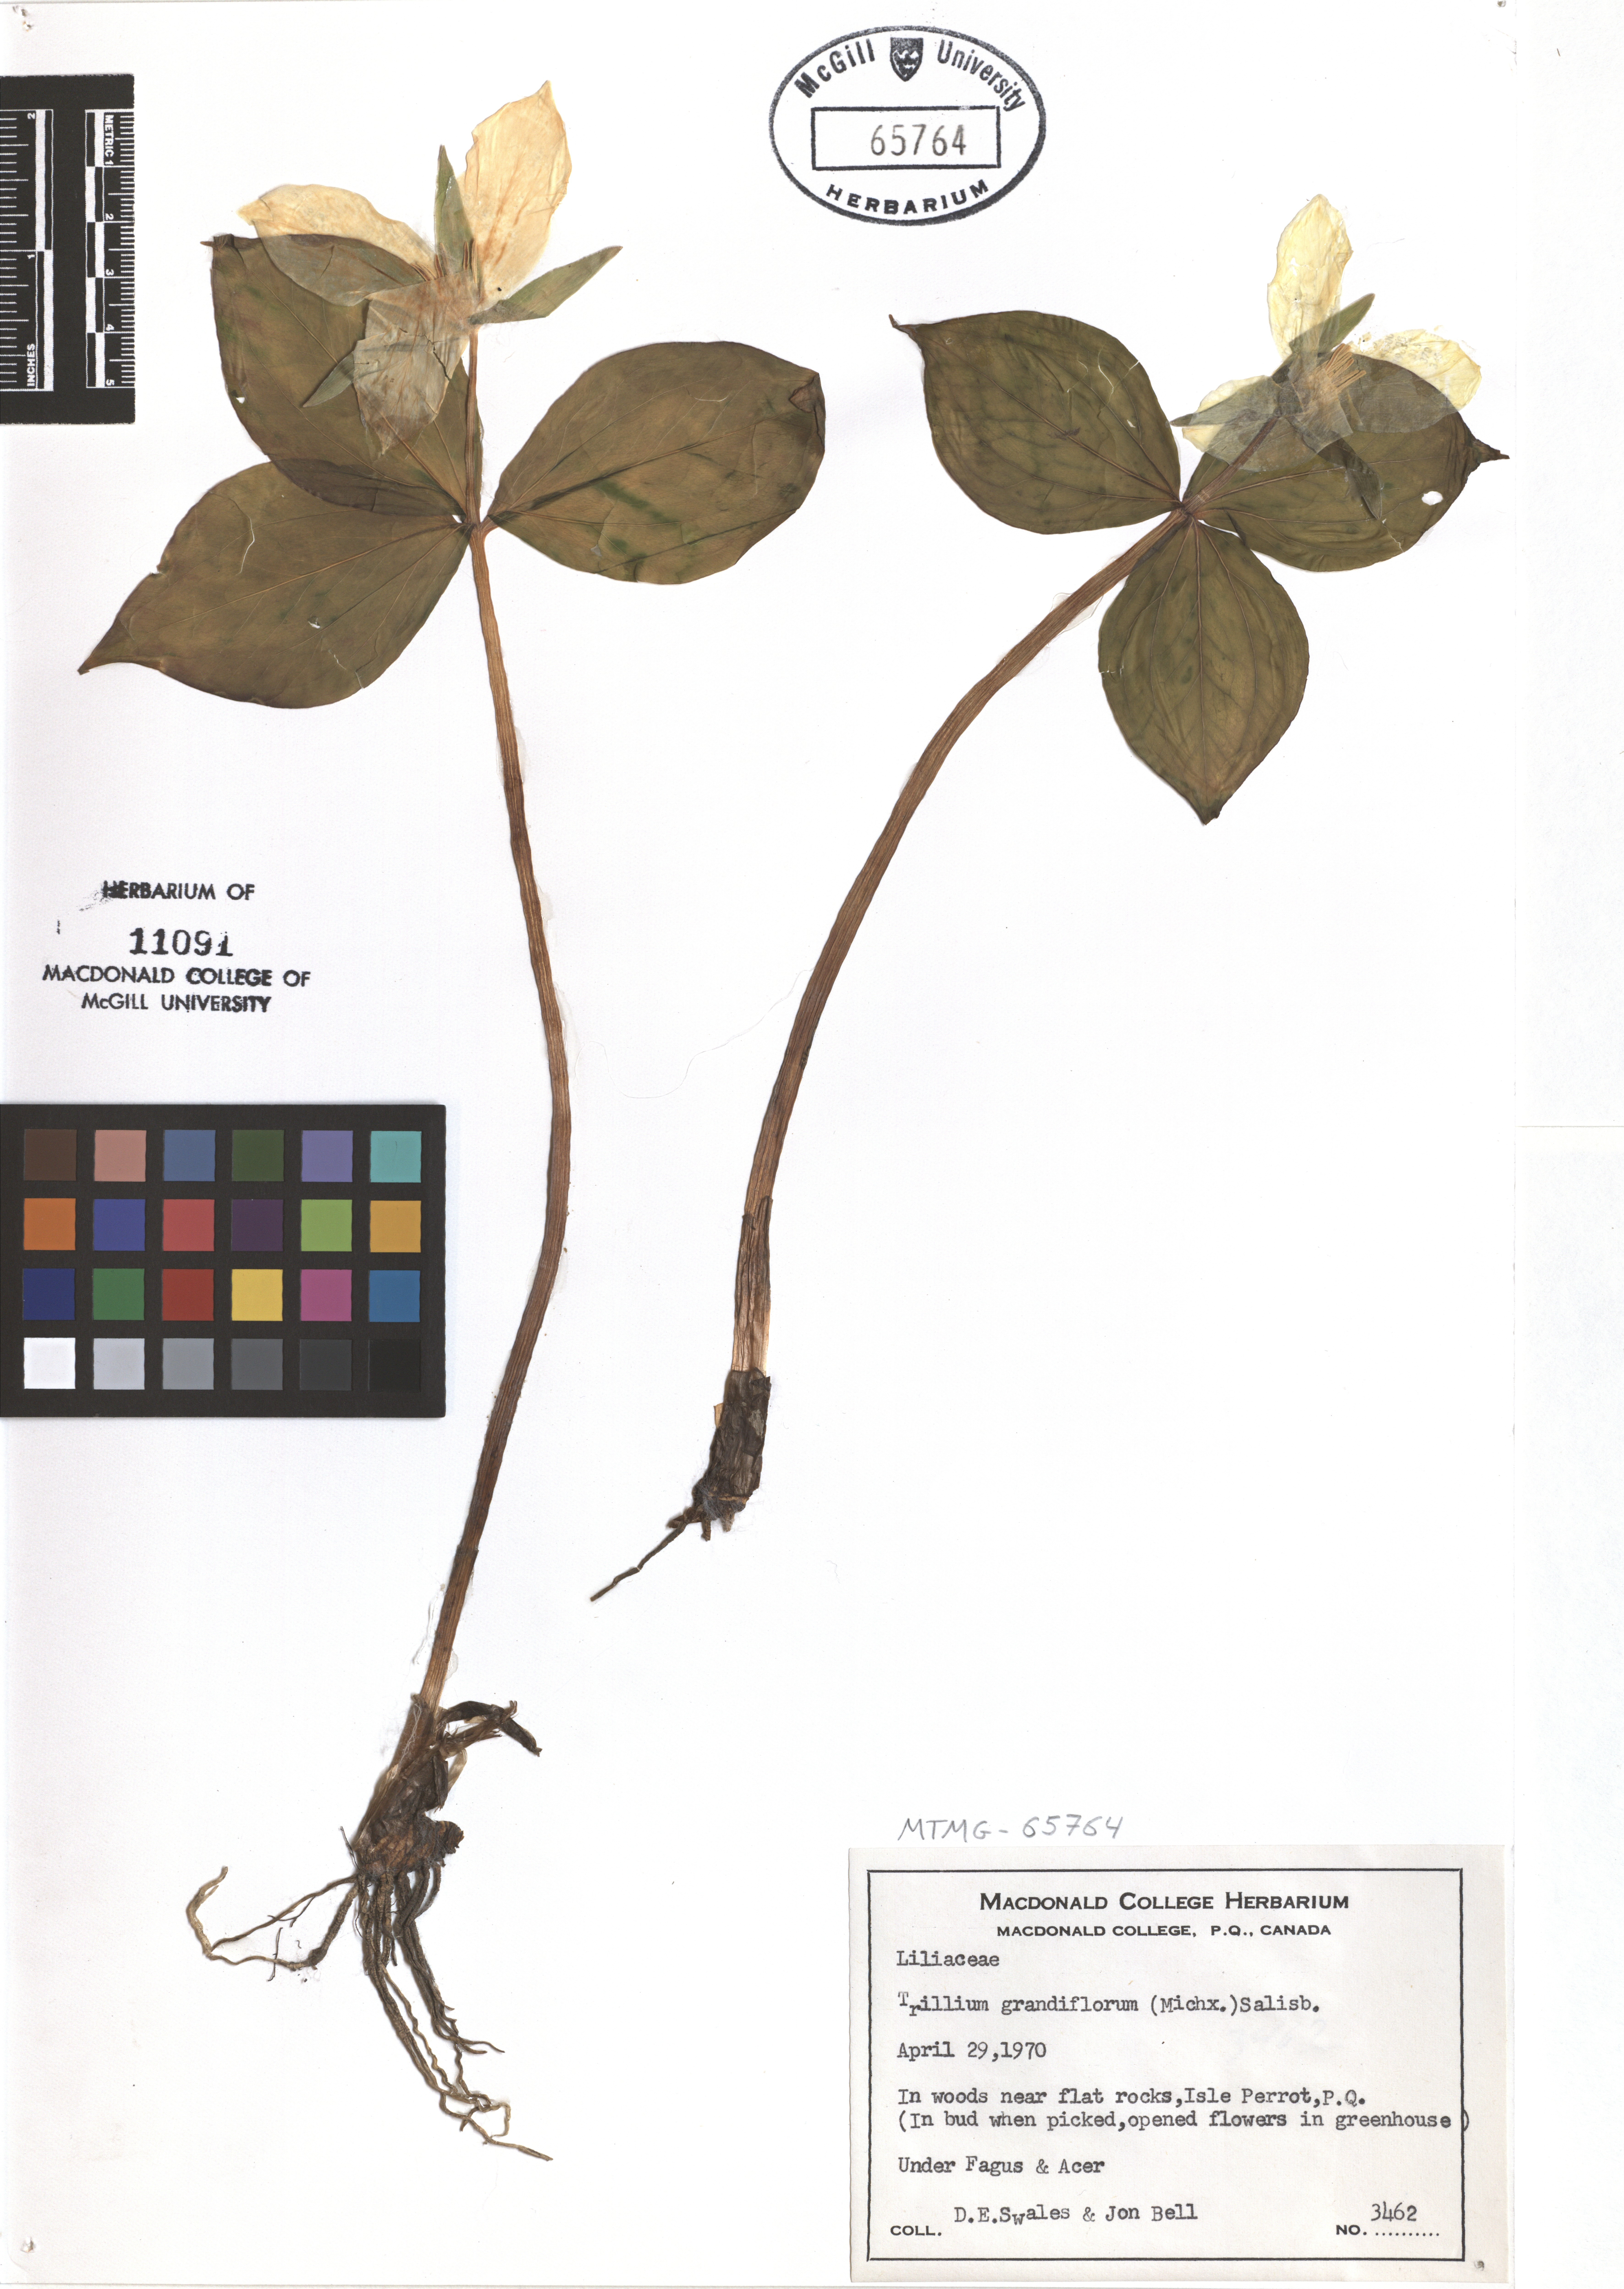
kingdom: Plantae
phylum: Tracheophyta
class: Liliopsida
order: Liliales
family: Melanthiaceae
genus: Trillium
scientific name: Trillium grandiflorum
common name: Great white trillium
